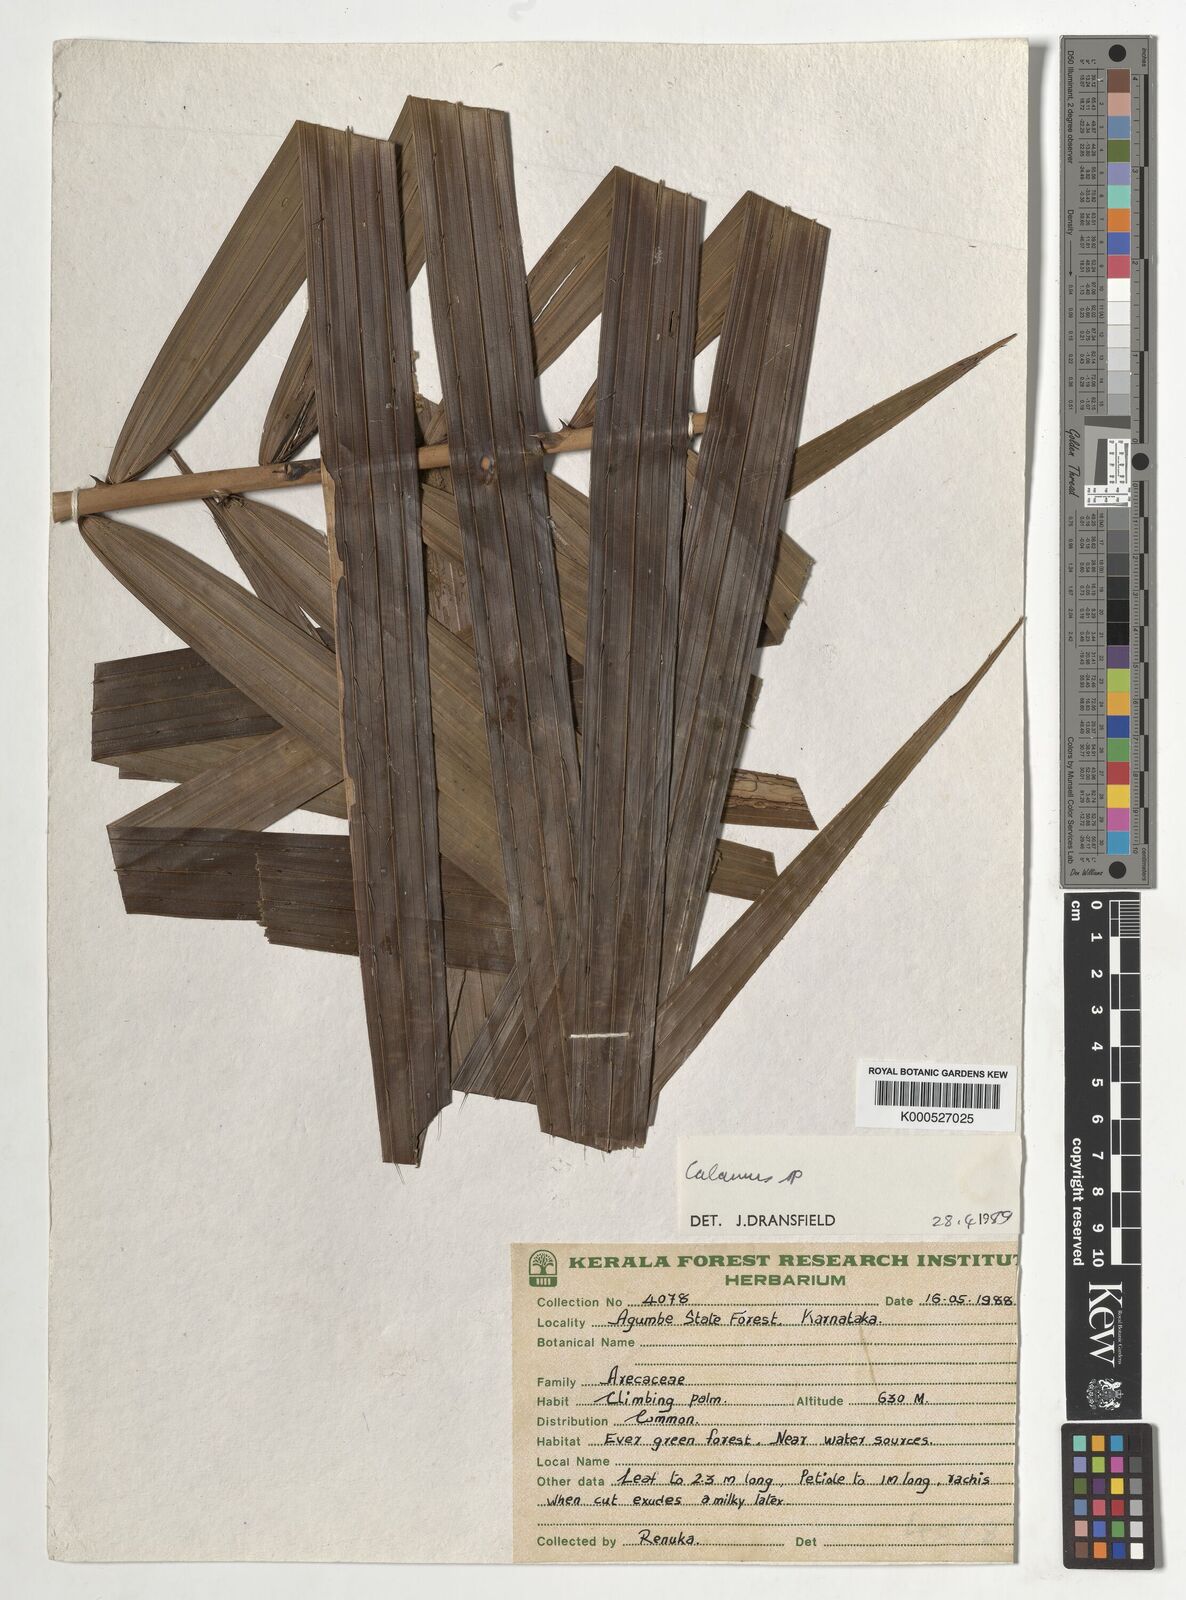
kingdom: Plantae
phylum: Tracheophyta
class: Liliopsida
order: Arecales
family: Arecaceae
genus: Calamus
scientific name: Calamus gamblei
